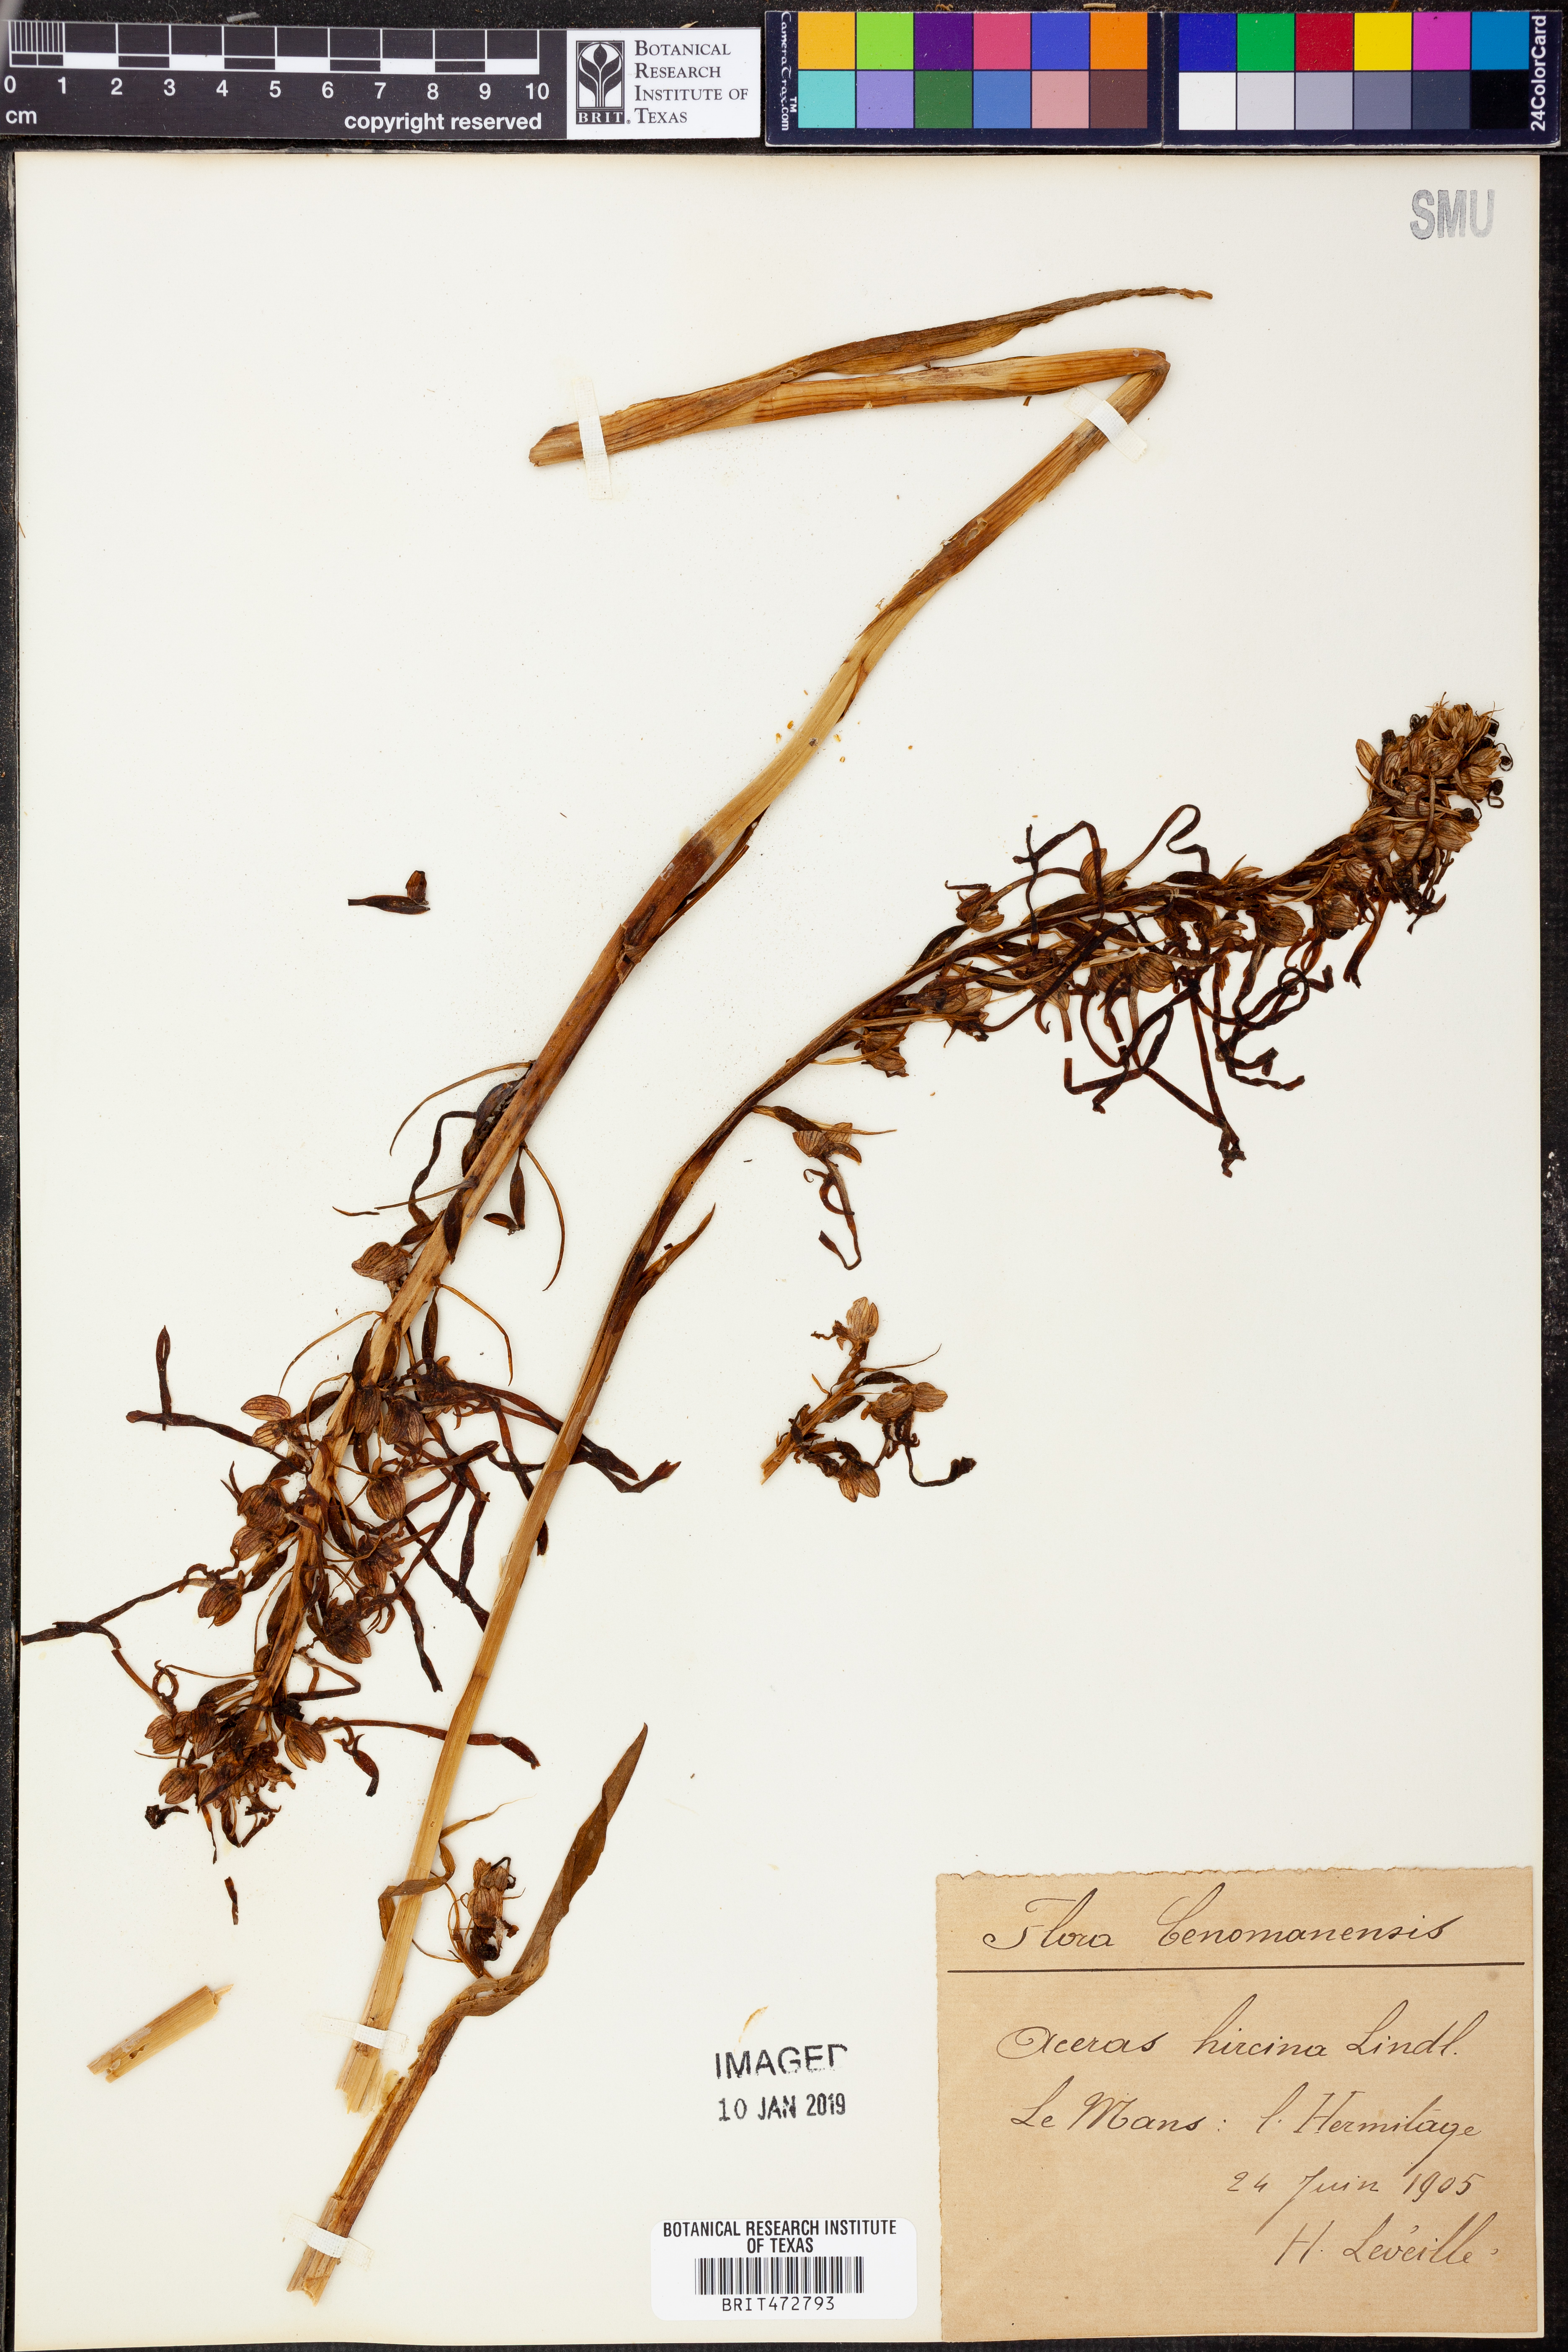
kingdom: Plantae
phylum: Tracheophyta
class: Liliopsida
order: Asparagales
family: Orchidaceae
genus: Himantoglossum
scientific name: Himantoglossum hircinum
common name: Lizard orchid
